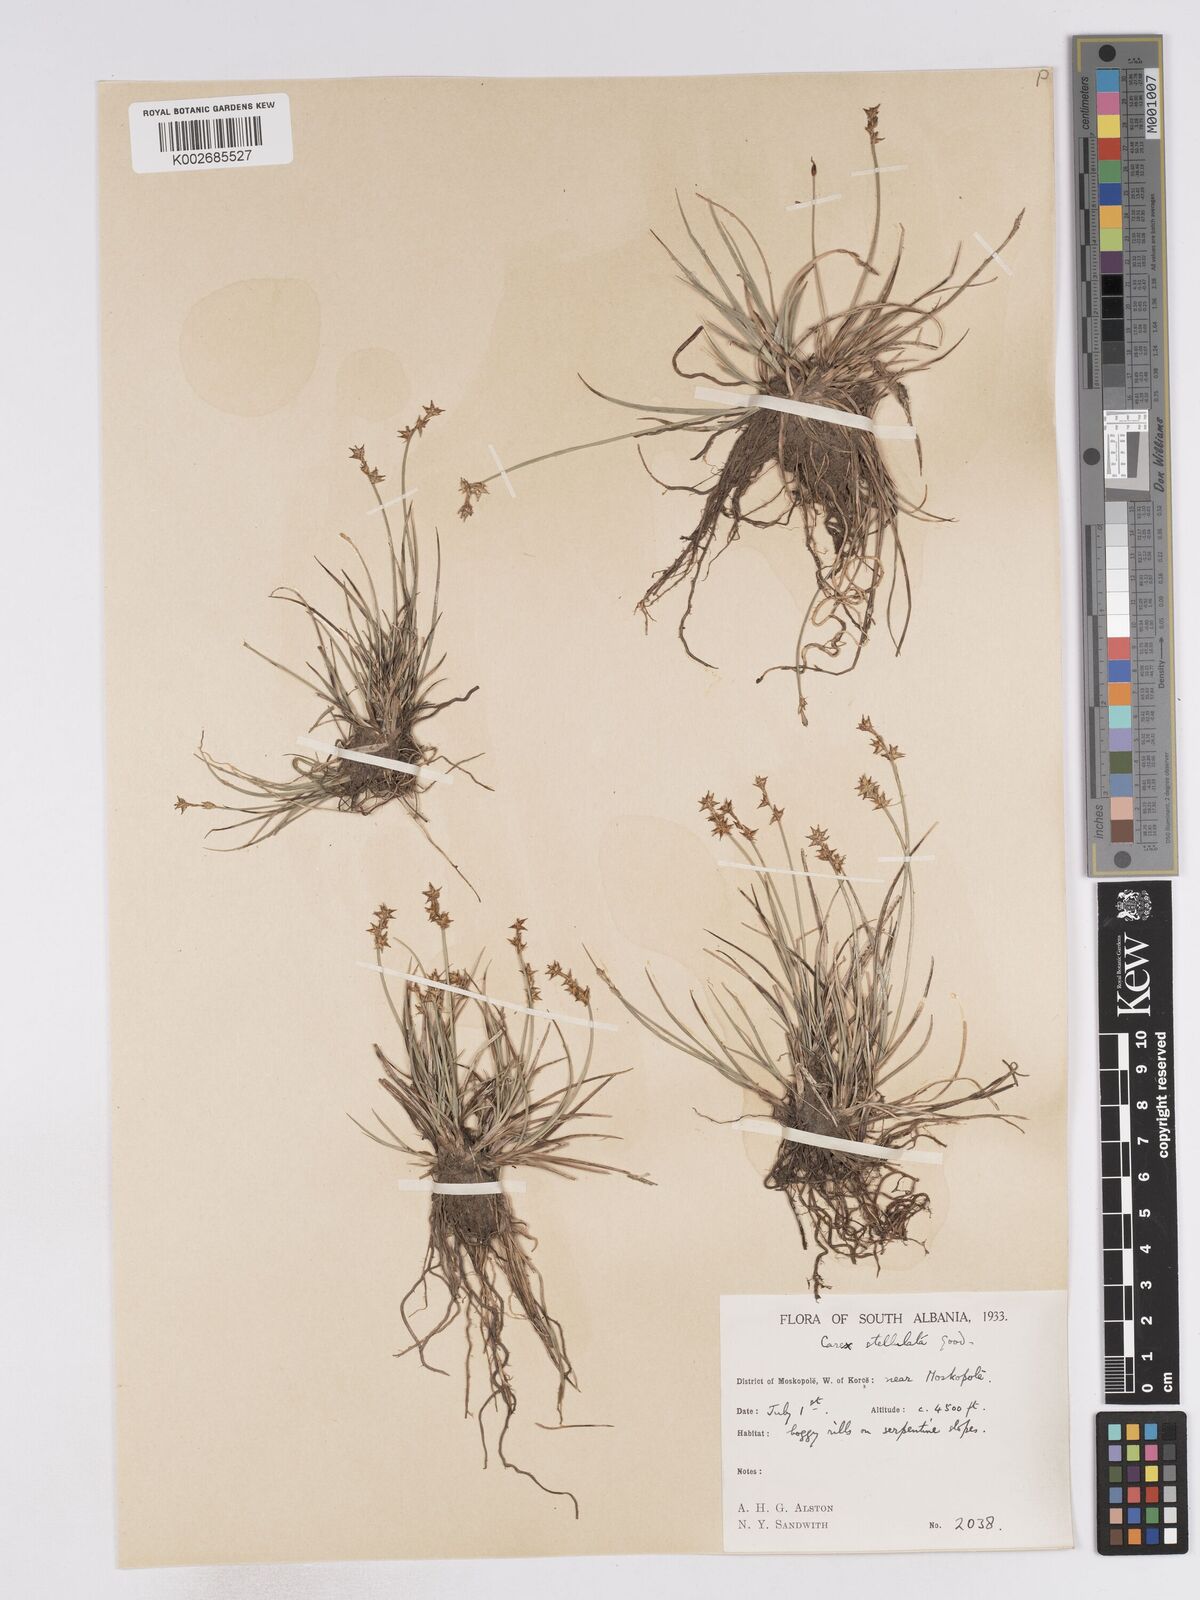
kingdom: Plantae
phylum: Tracheophyta
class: Liliopsida
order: Poales
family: Cyperaceae
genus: Carex
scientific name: Carex echinata
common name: Star sedge
